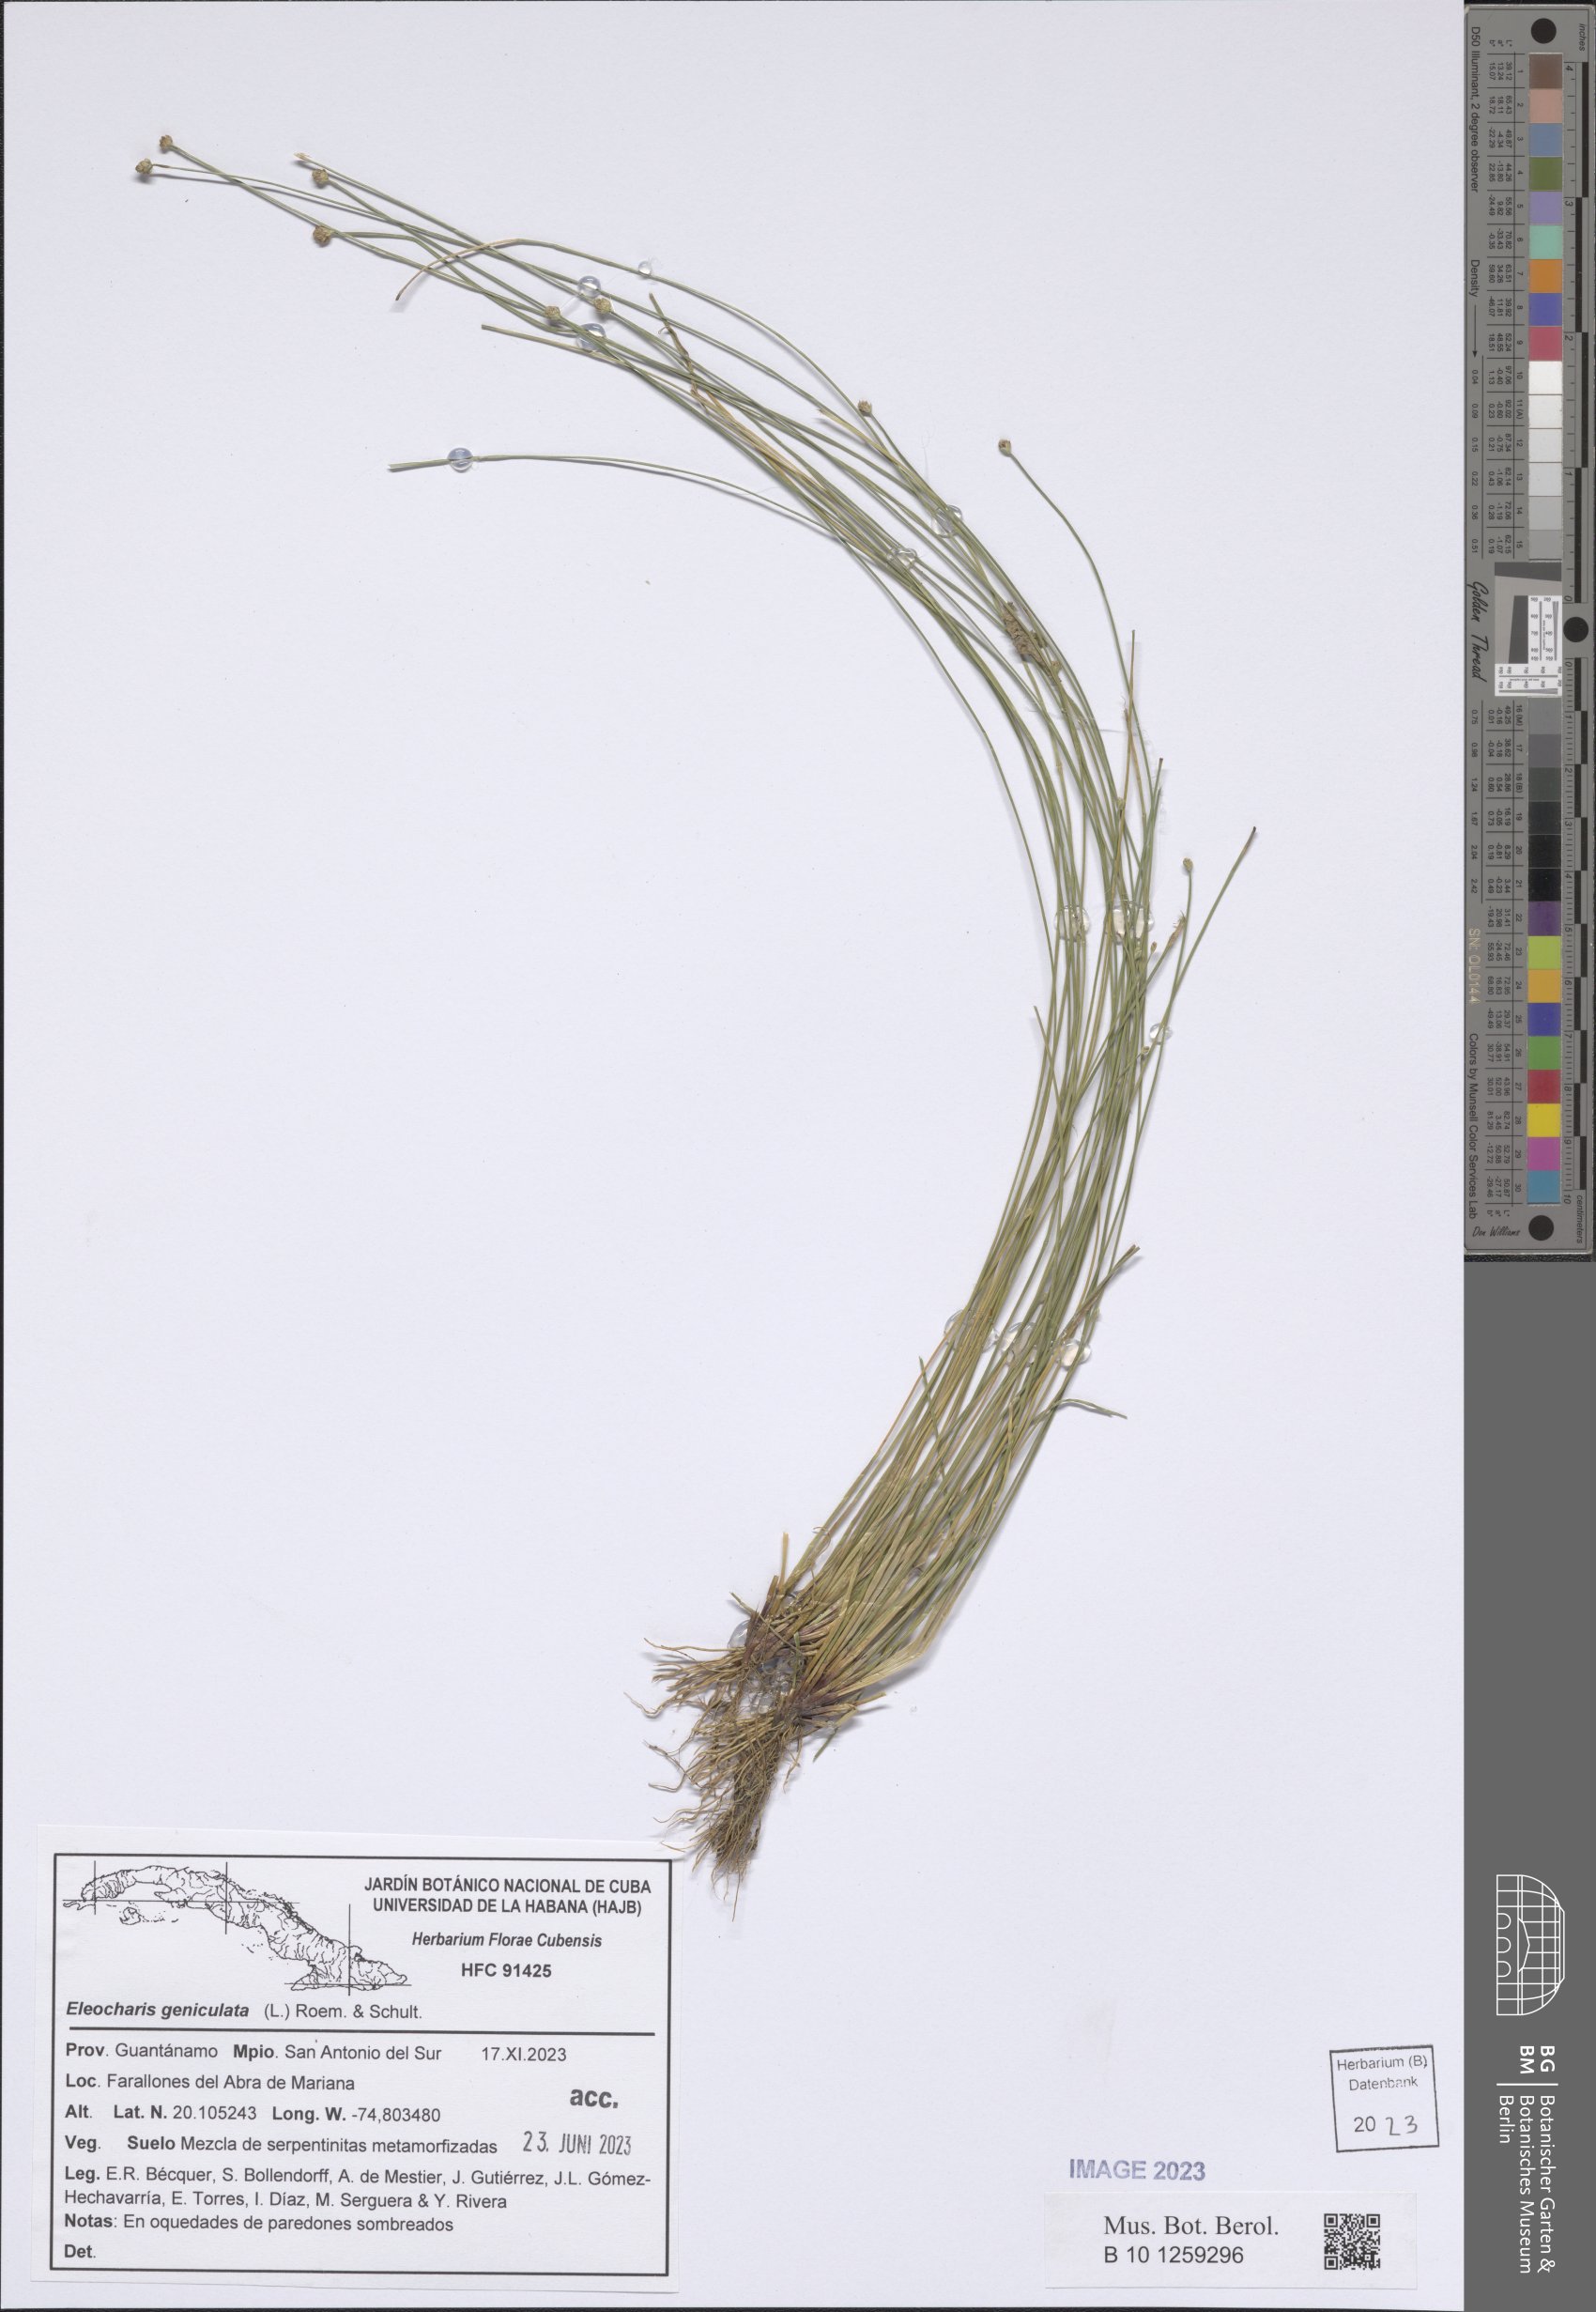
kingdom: Plantae
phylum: Tracheophyta
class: Liliopsida
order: Poales
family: Cyperaceae
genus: Eleocharis
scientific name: Eleocharis geniculata
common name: Canada spikesedge
